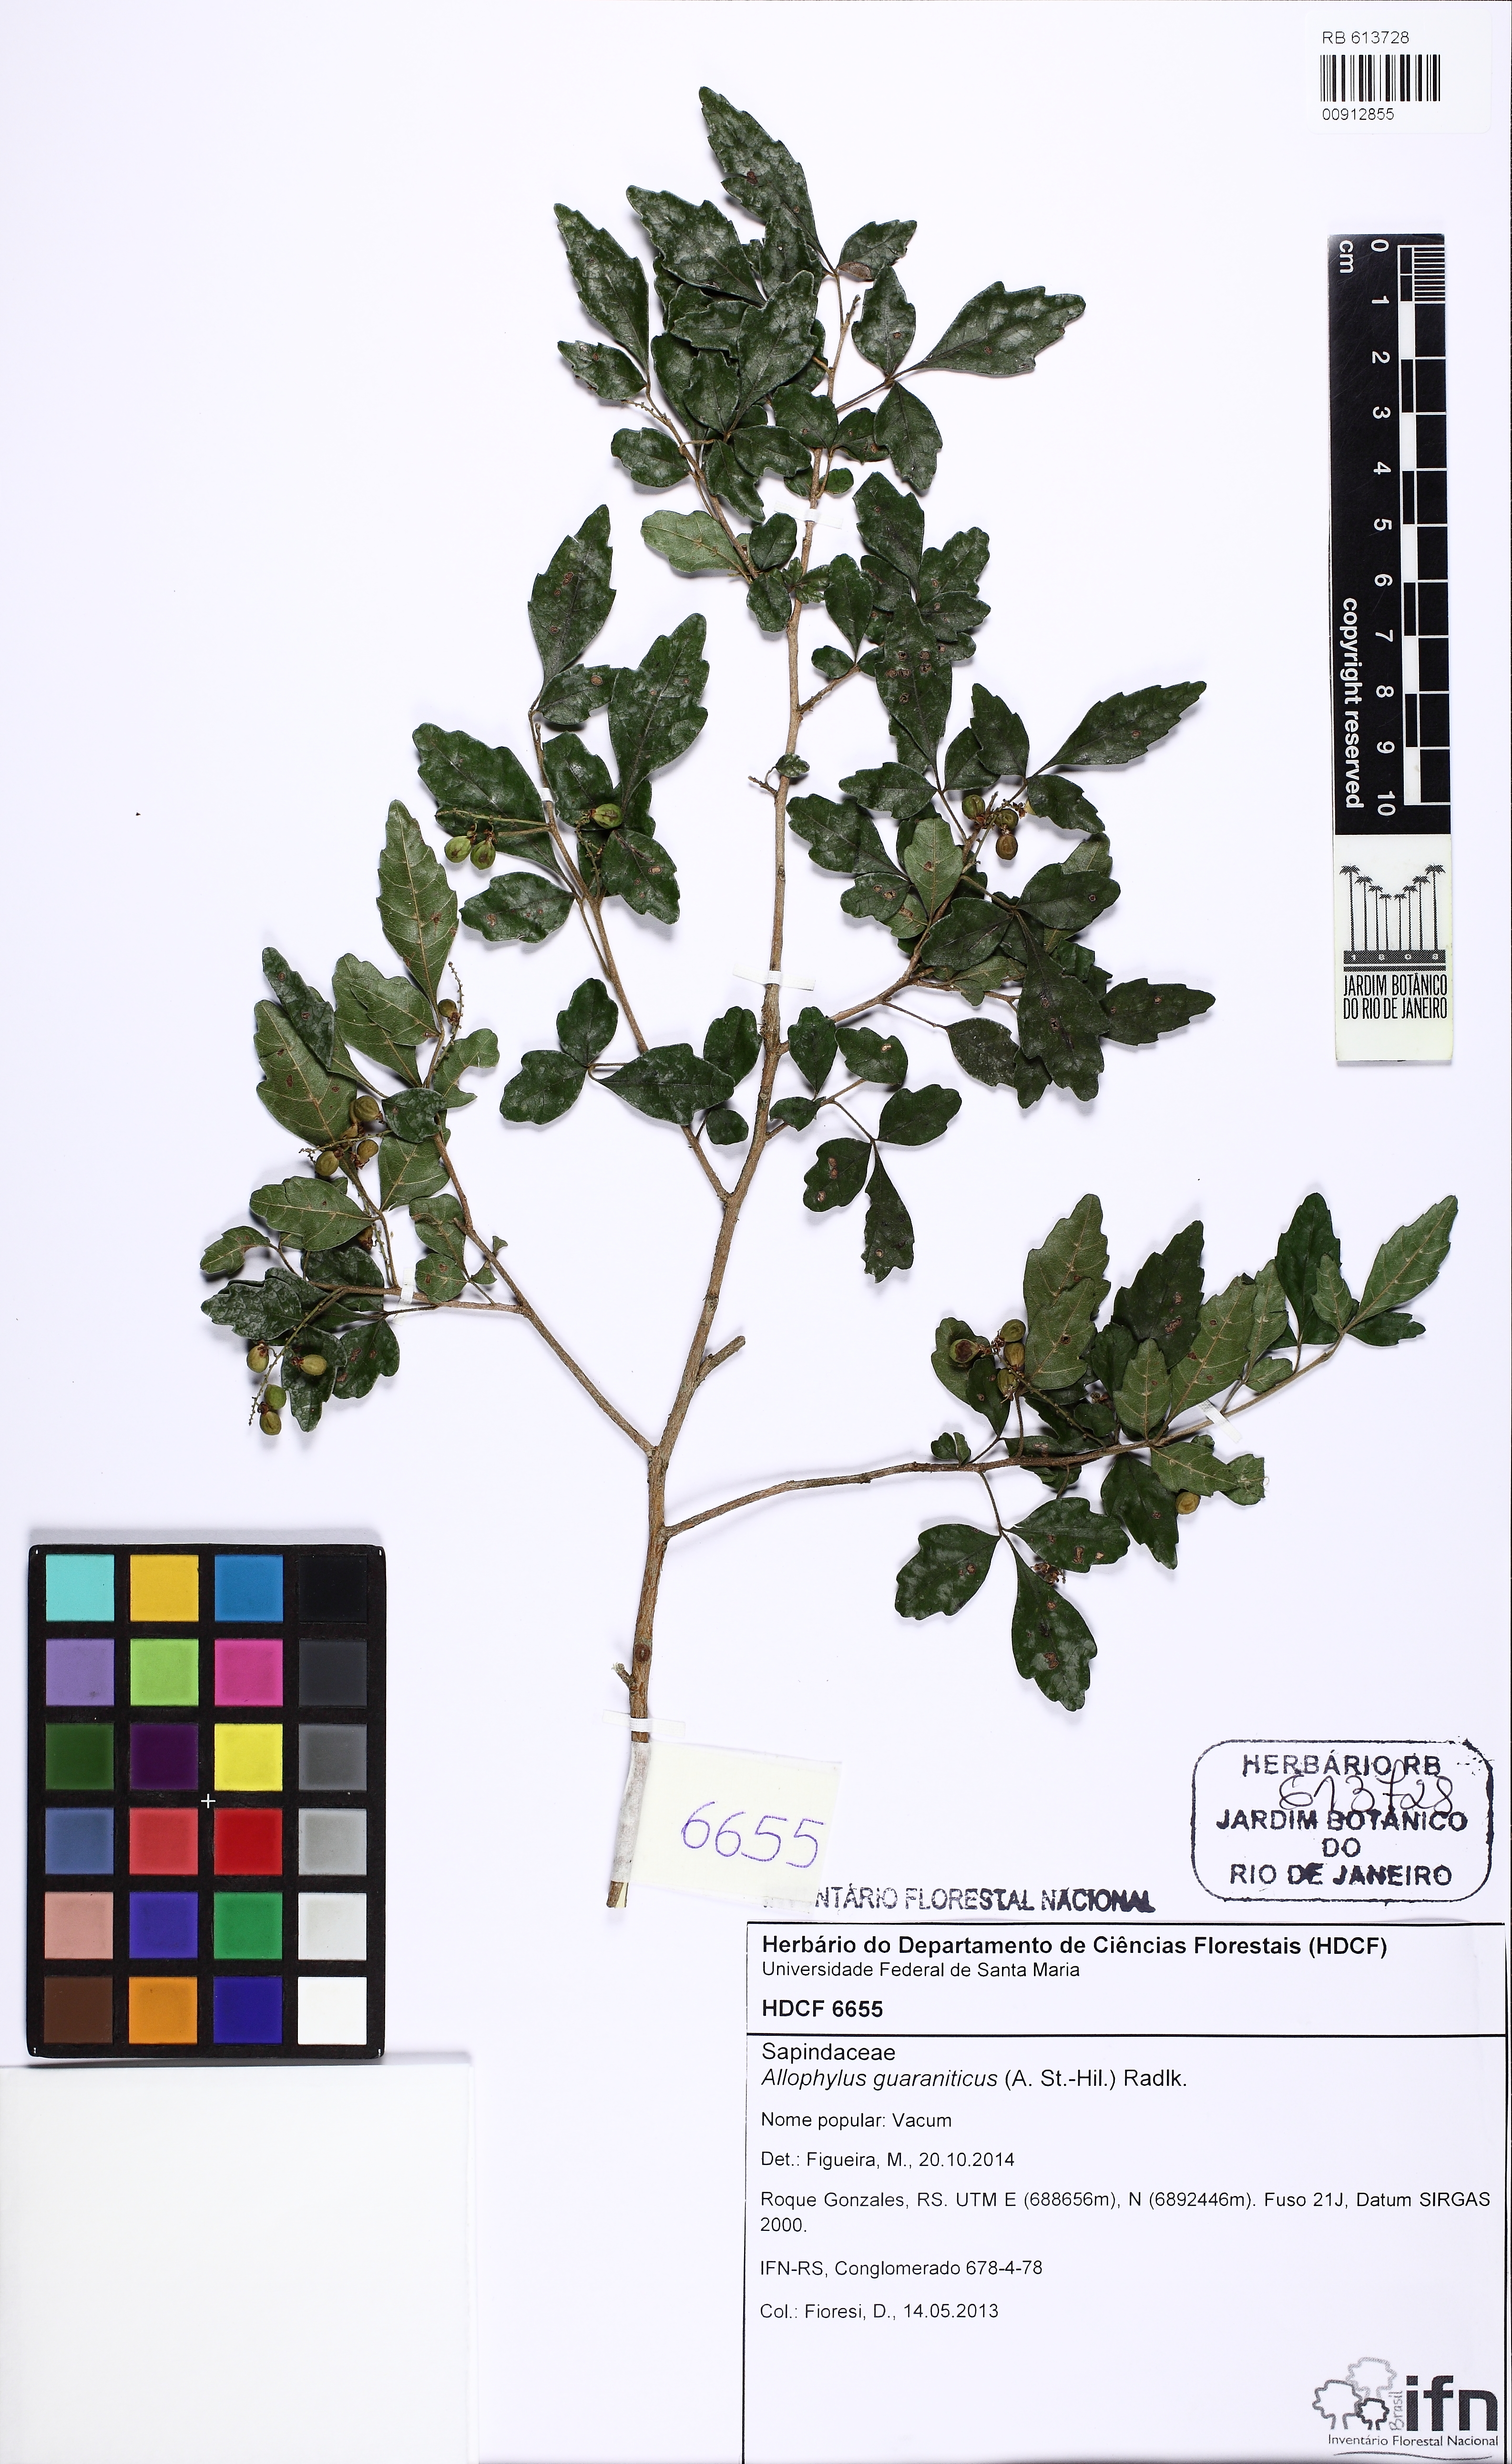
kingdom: Plantae
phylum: Tracheophyta
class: Magnoliopsida
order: Sapindales
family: Sapindaceae
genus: Allophylus
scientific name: Allophylus guaraniticus
